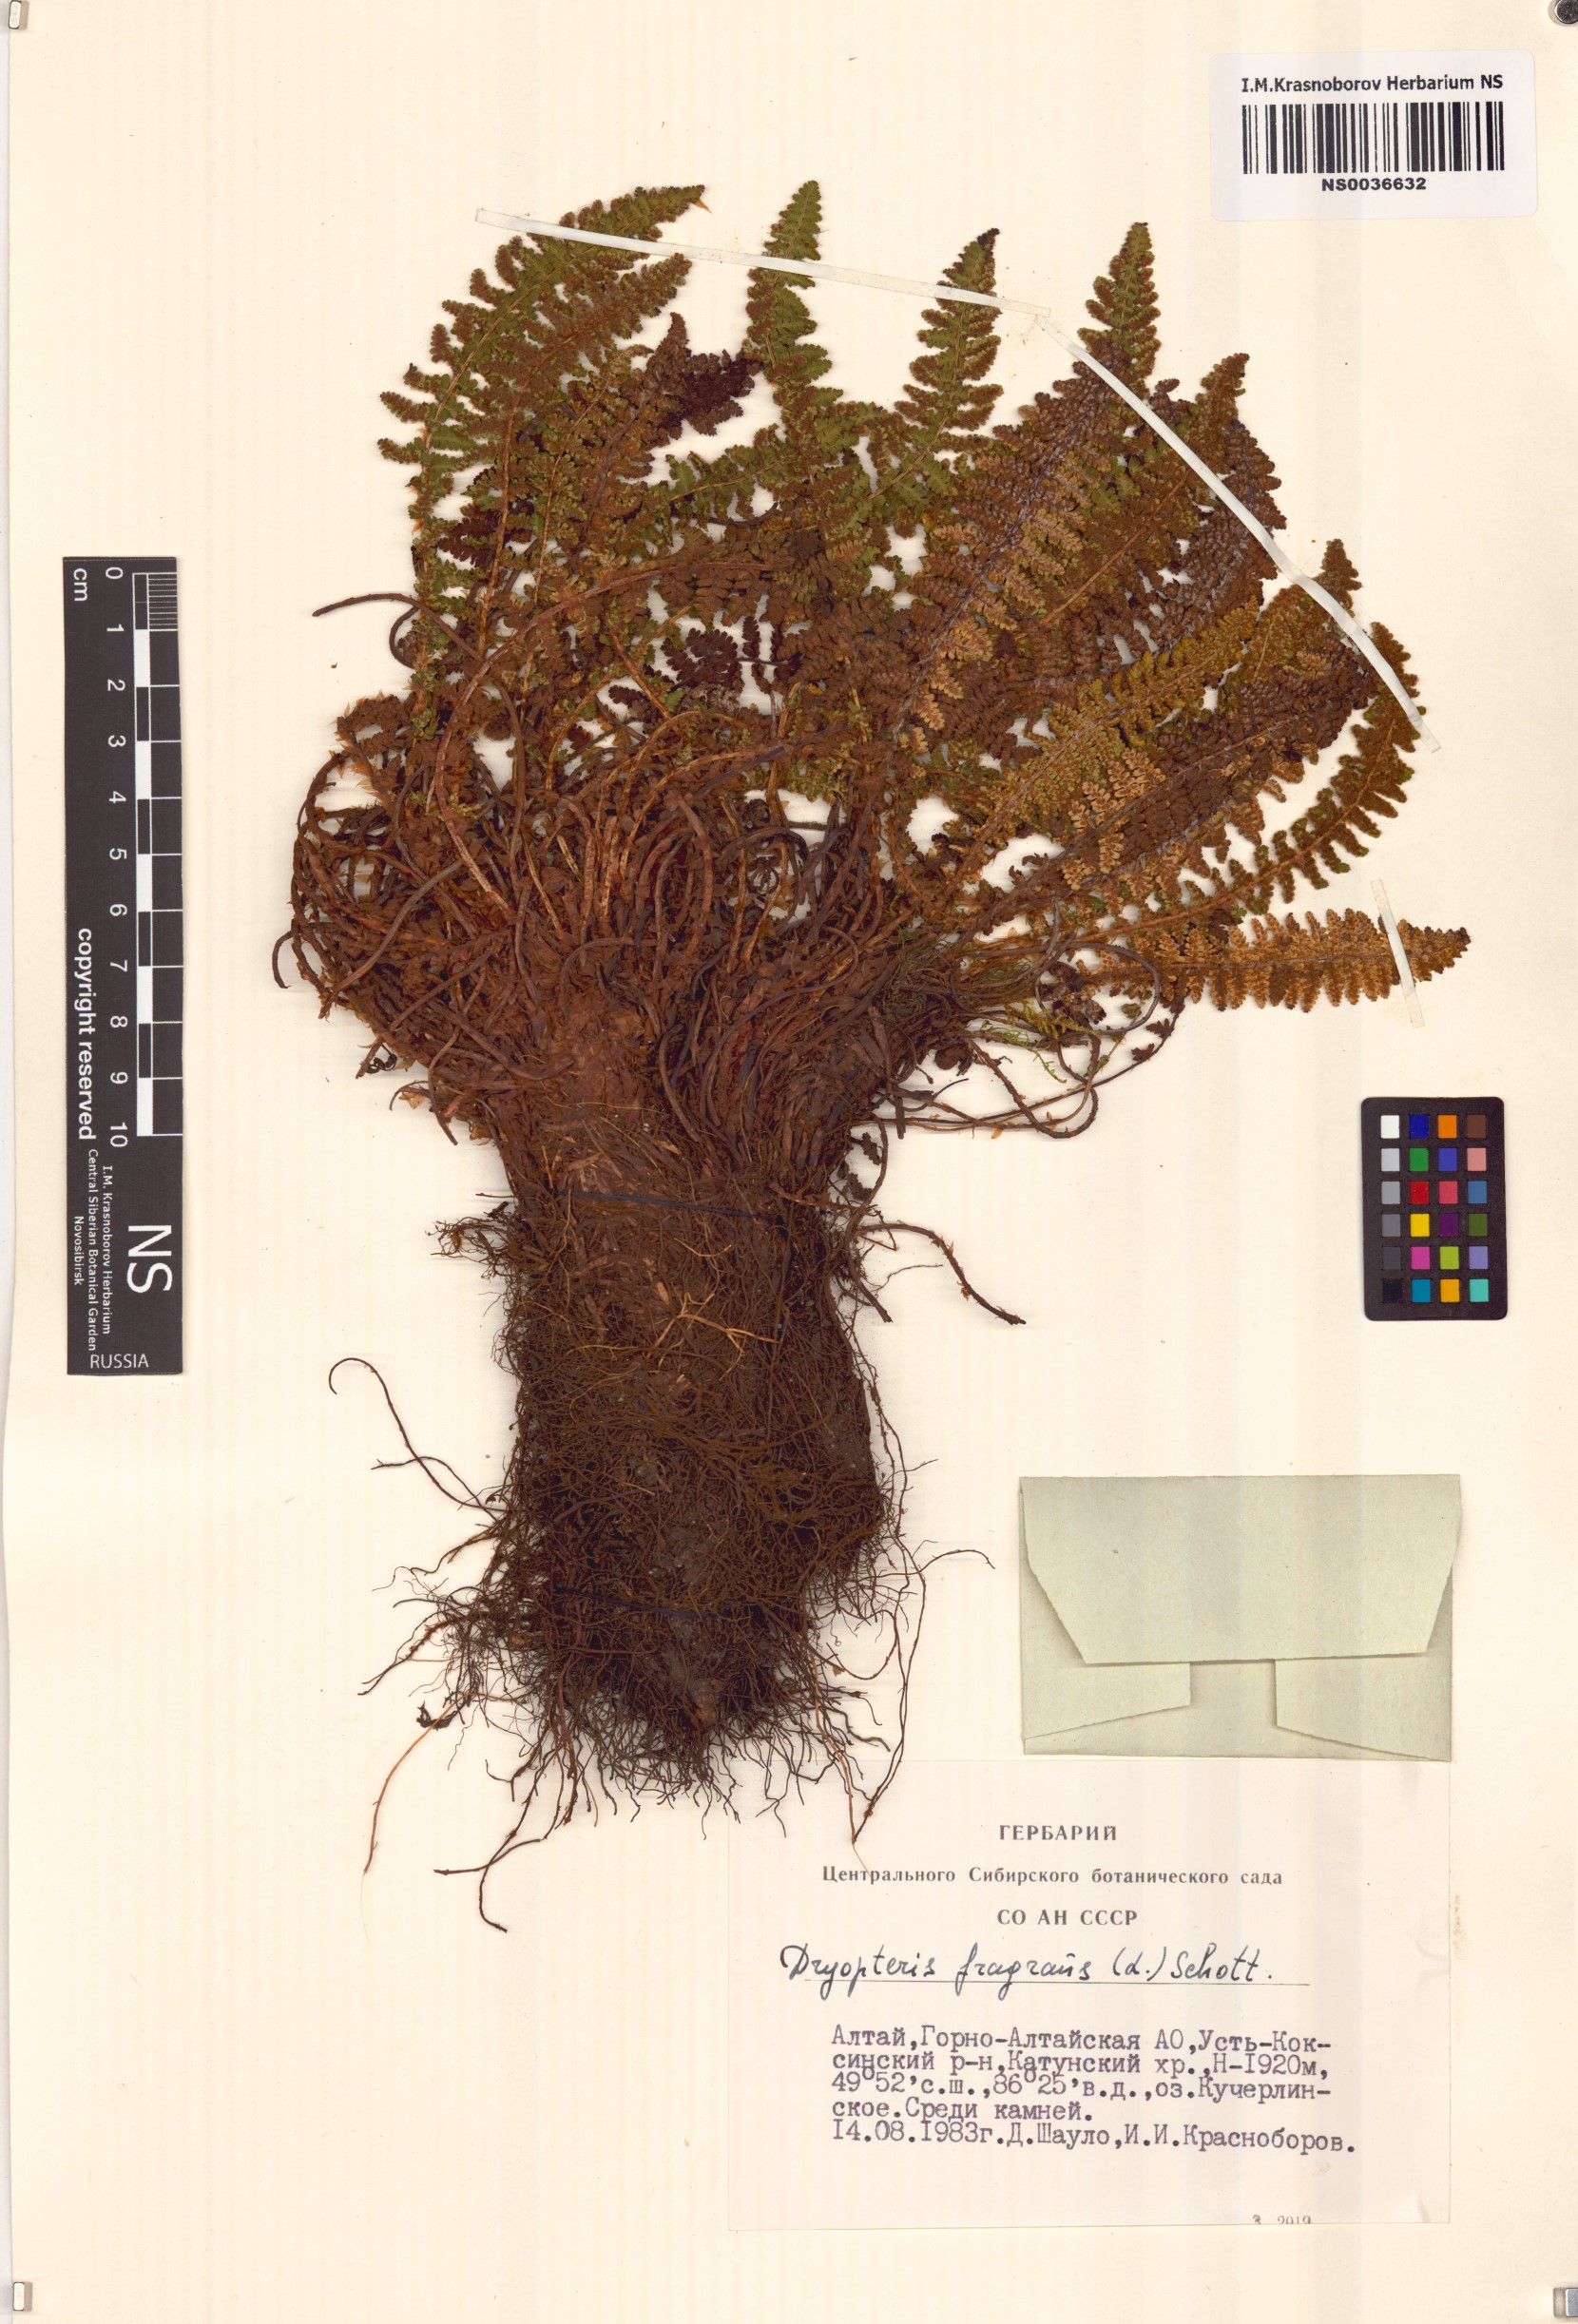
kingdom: Plantae
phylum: Tracheophyta
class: Polypodiopsida
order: Polypodiales
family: Dryopteridaceae
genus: Dryopteris
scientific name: Dryopteris fragrans
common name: Fragrant wood fern
